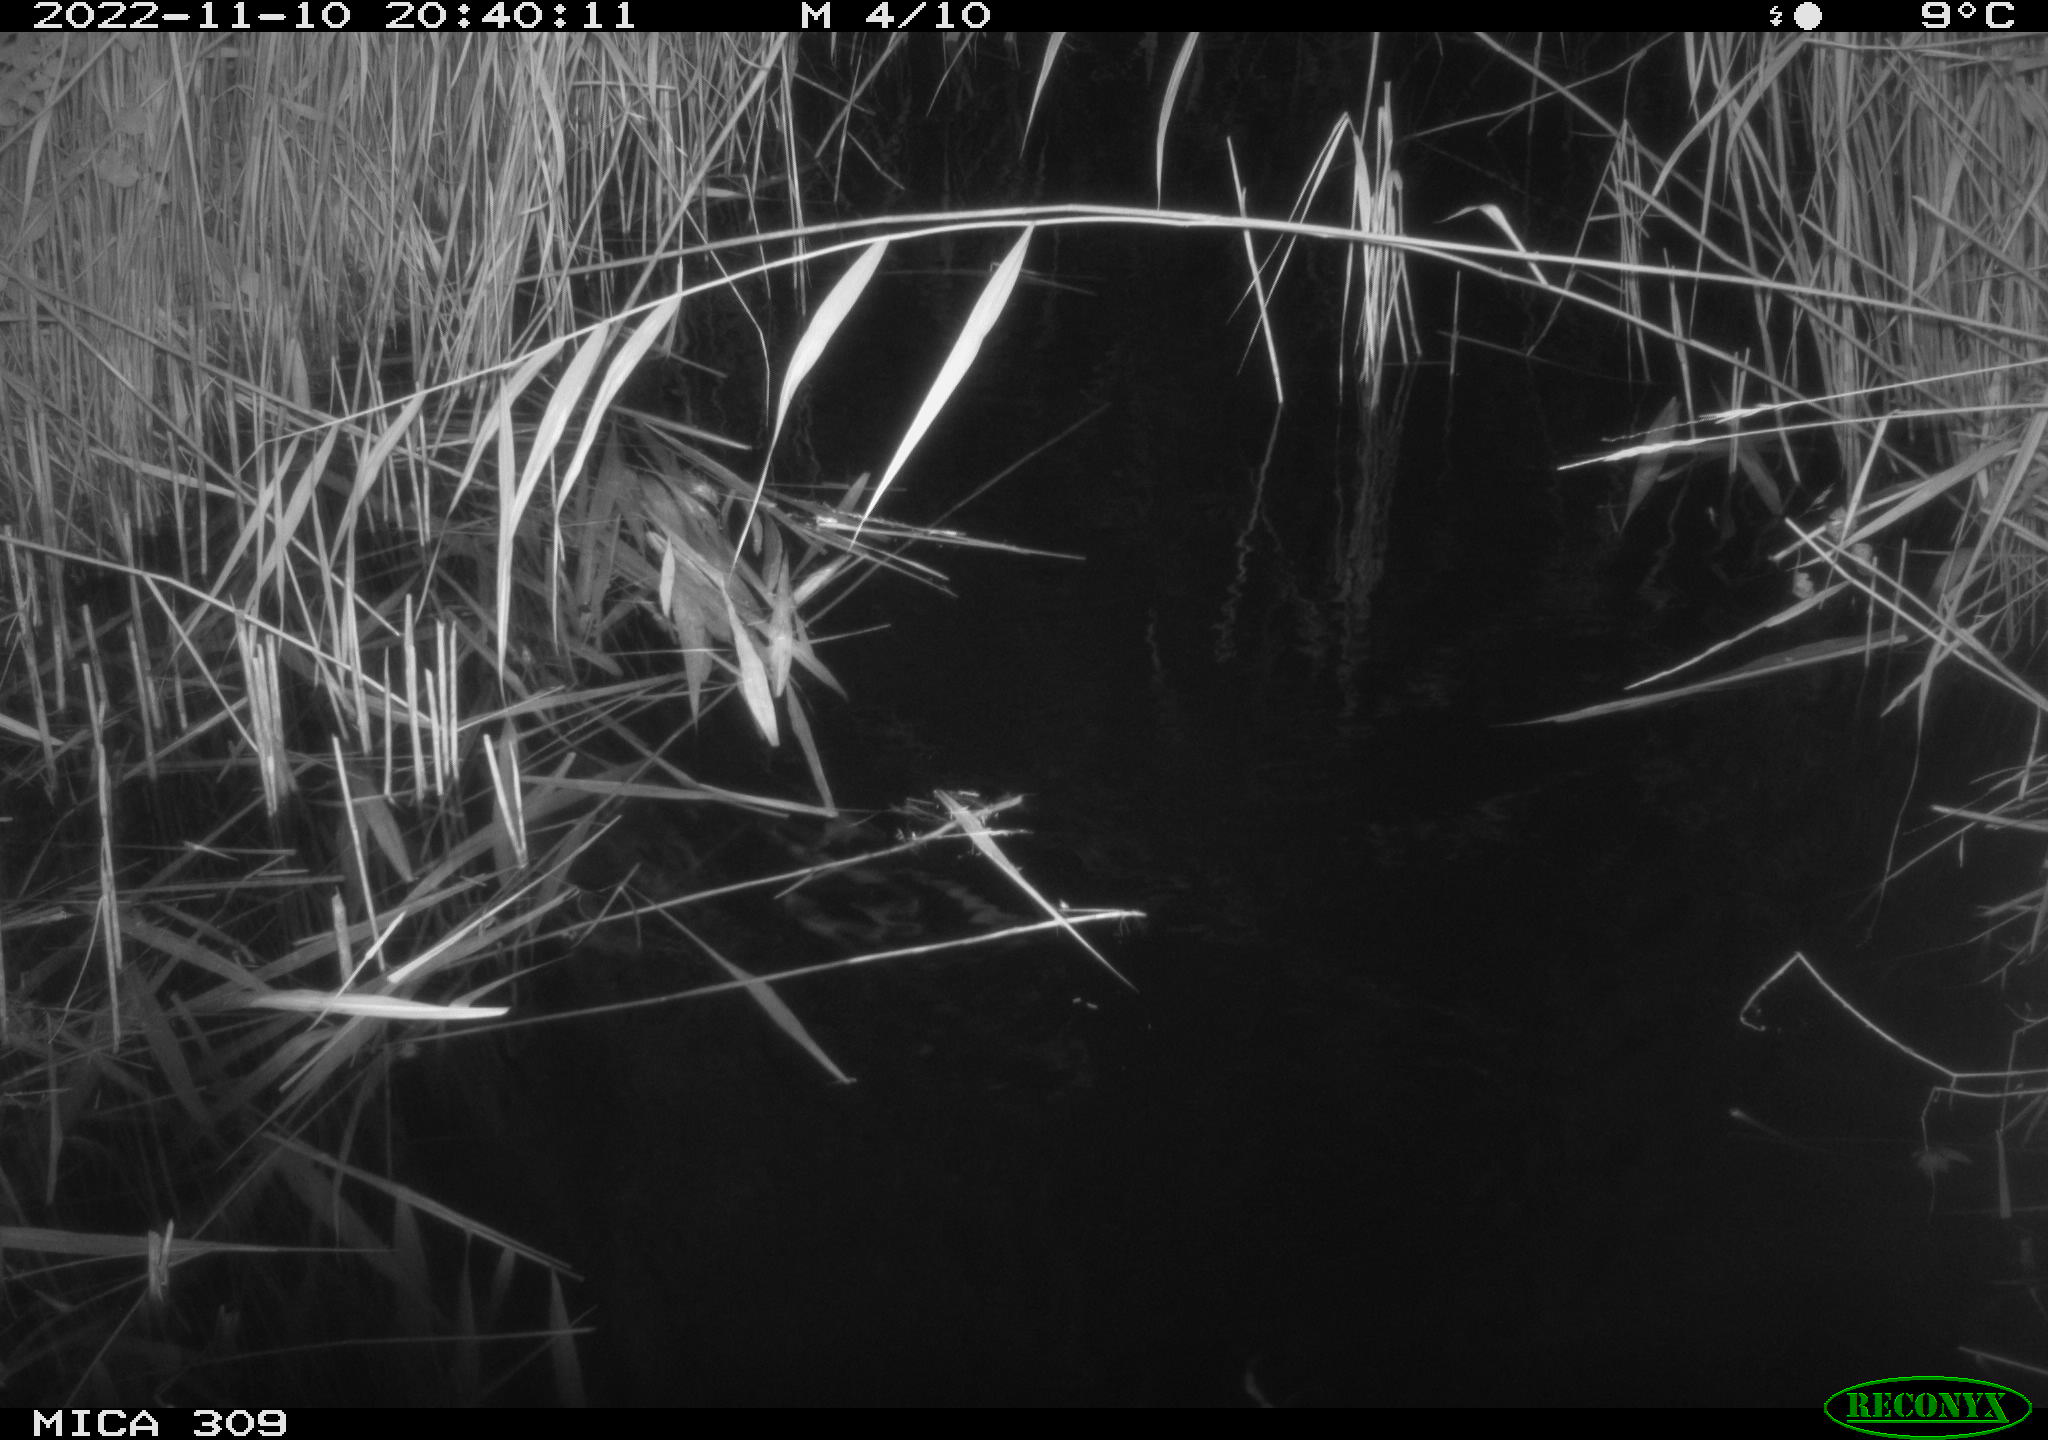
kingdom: Animalia
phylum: Chordata
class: Mammalia
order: Rodentia
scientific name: Rodentia
